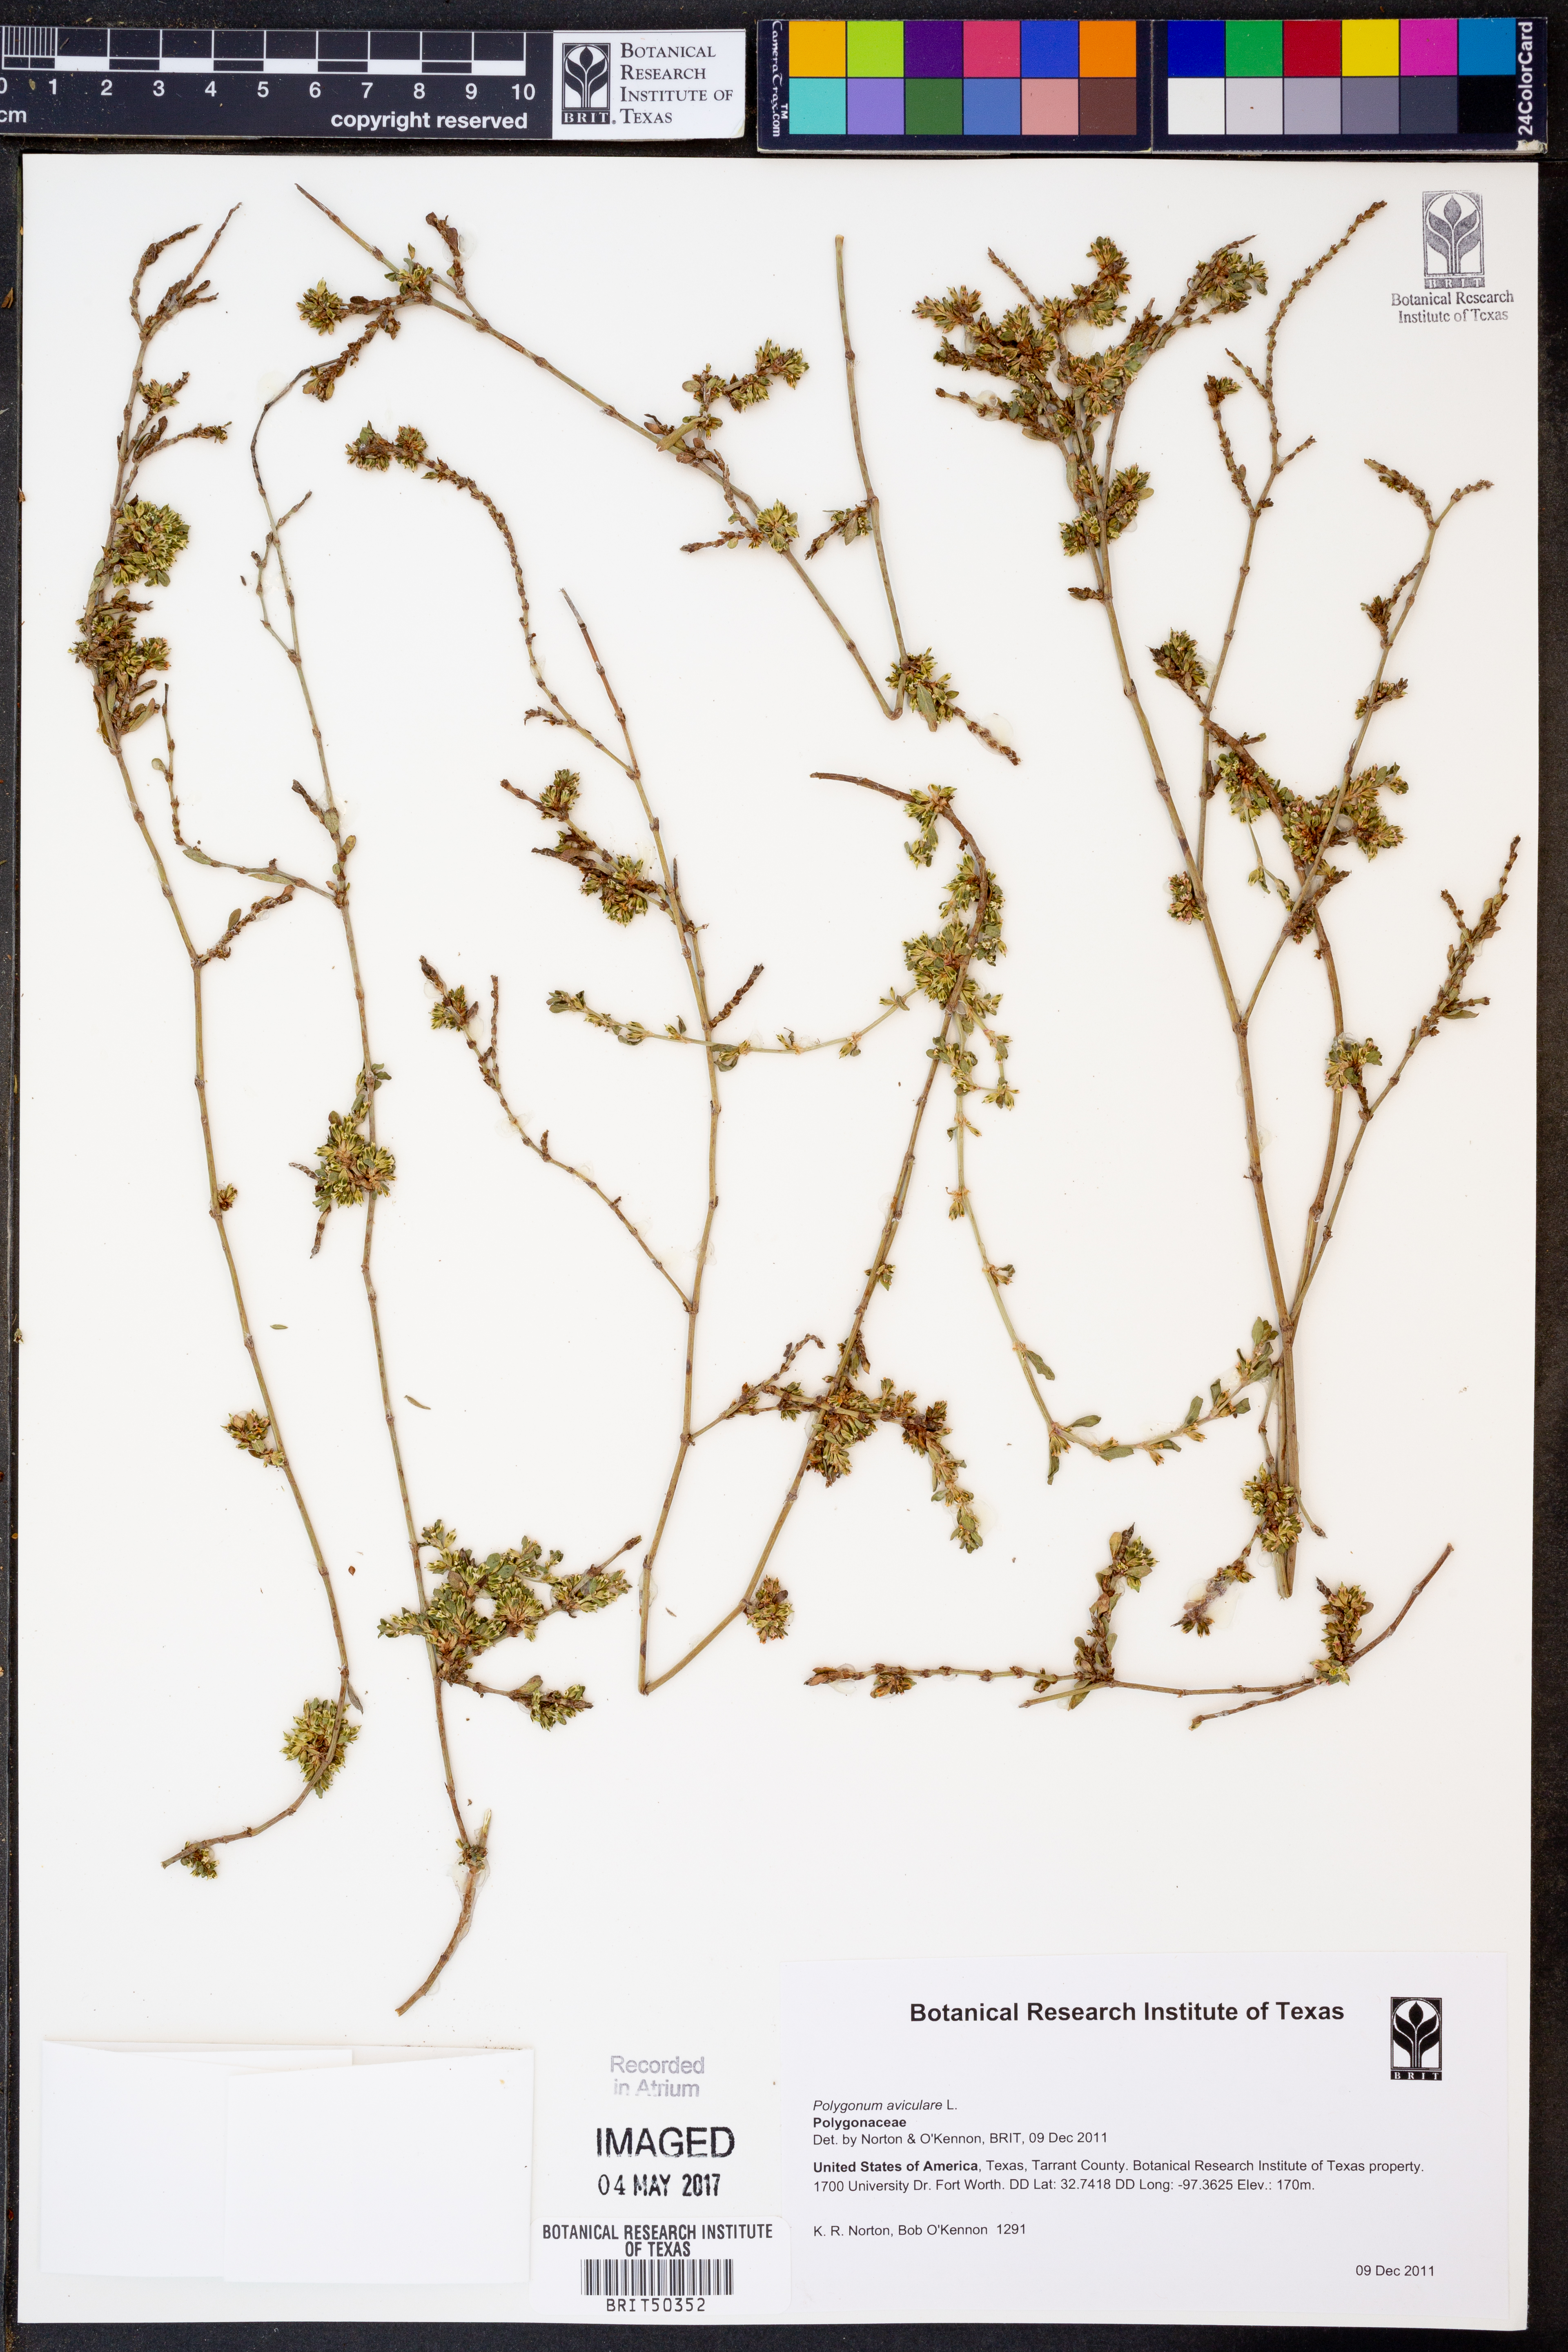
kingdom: Plantae
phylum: Tracheophyta
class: Magnoliopsida
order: Caryophyllales
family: Polygonaceae
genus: Polygonum
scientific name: Polygonum aviculare
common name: Prostrate knotweed
